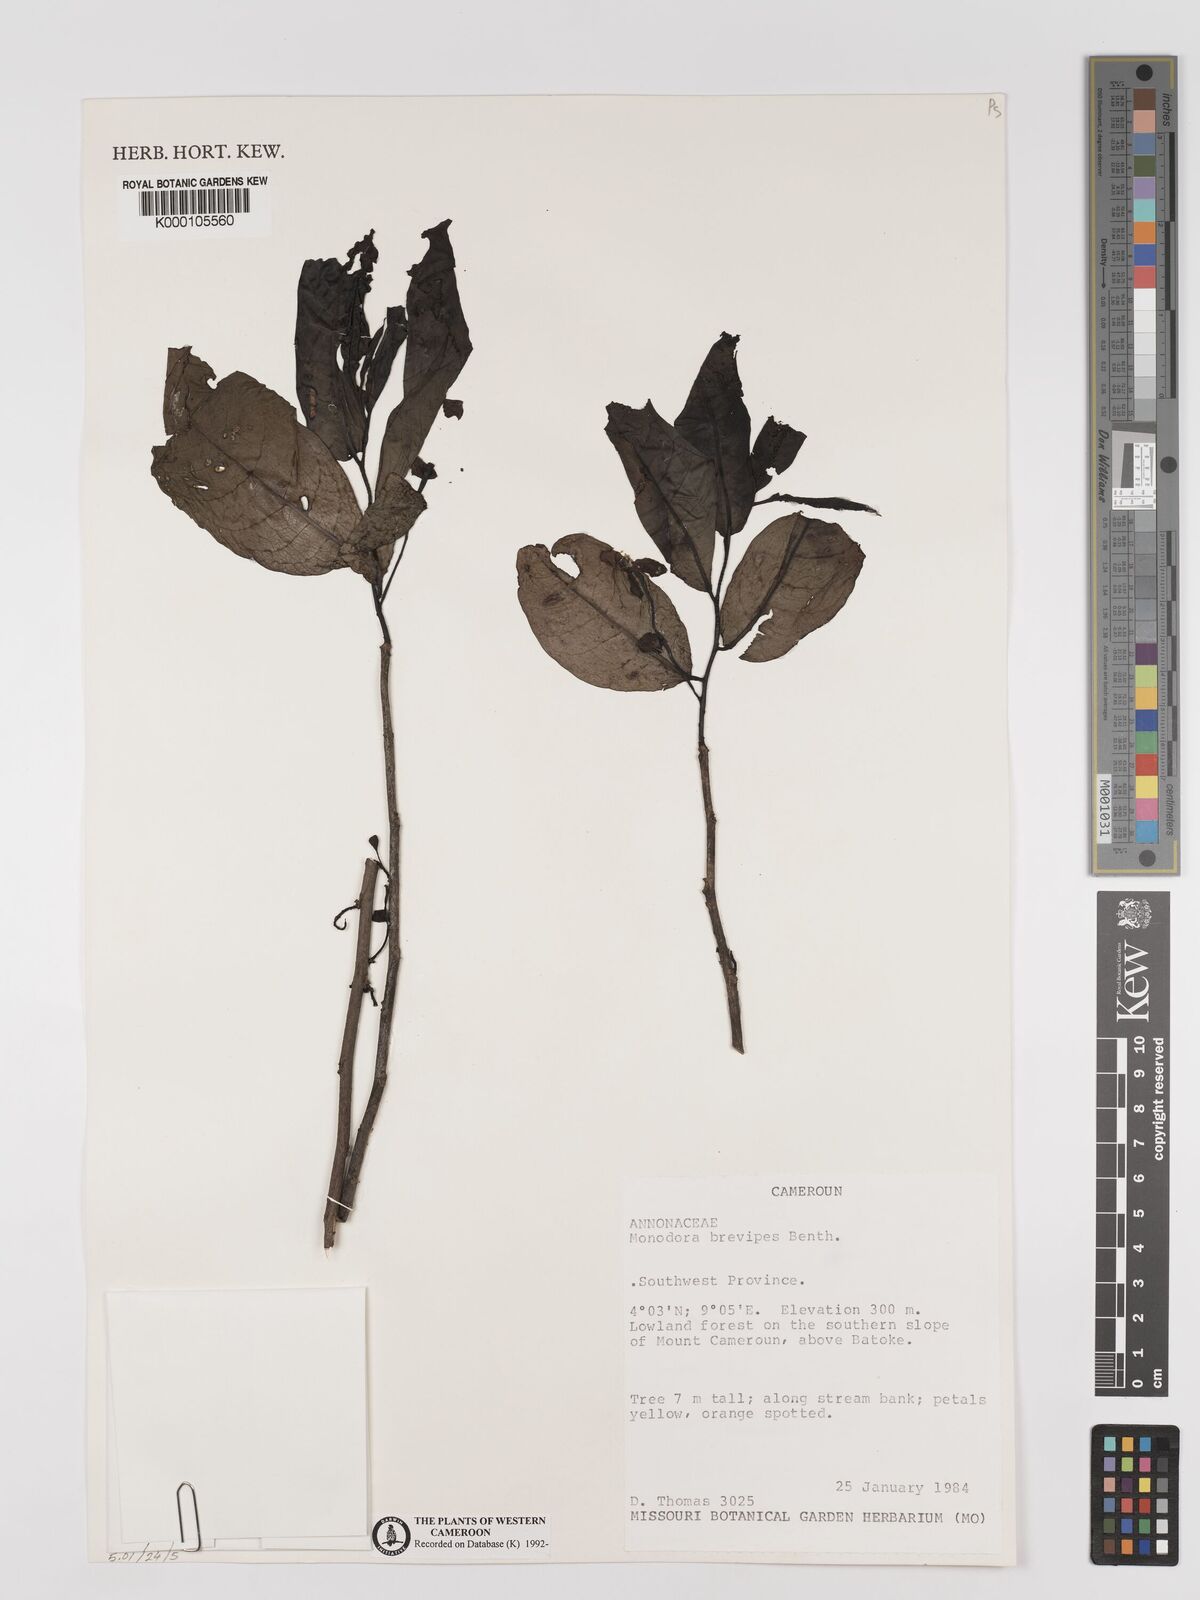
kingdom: Plantae
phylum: Tracheophyta
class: Magnoliopsida
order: Magnoliales
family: Annonaceae
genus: Monodora
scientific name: Monodora undulata
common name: Yellow-flower-nutmeg
